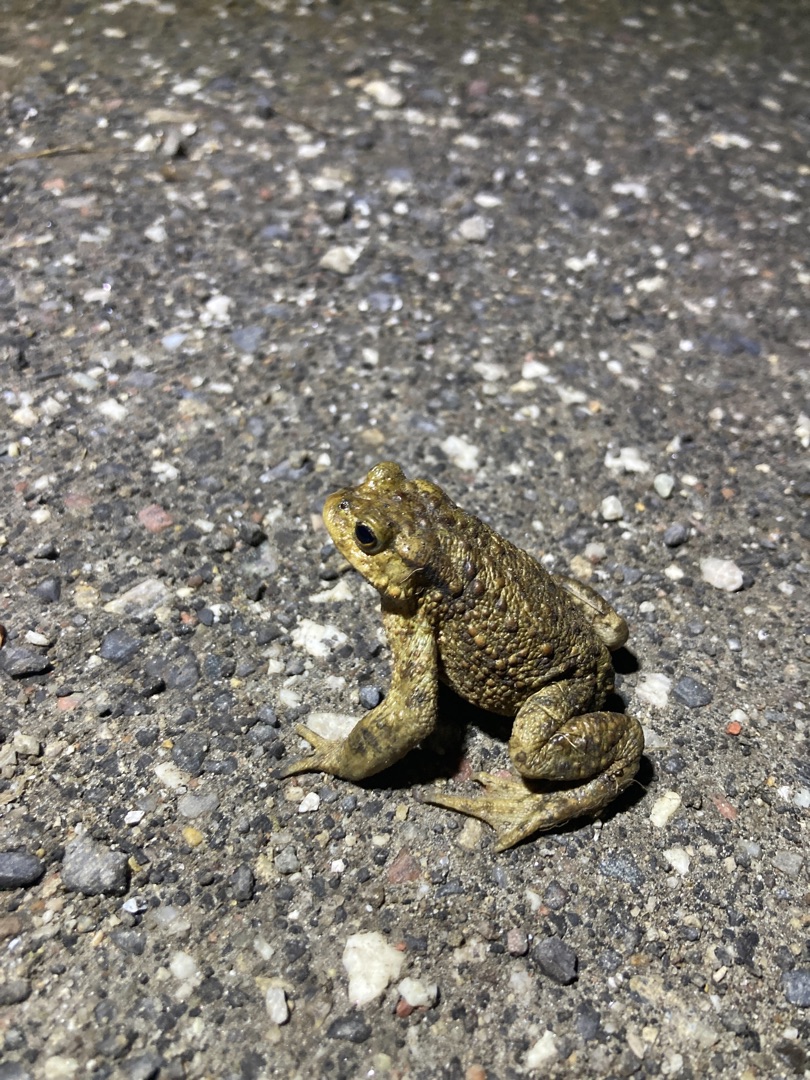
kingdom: Animalia
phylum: Chordata
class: Amphibia
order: Anura
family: Bufonidae
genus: Bufo
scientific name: Bufo bufo
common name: Skrubtudse
